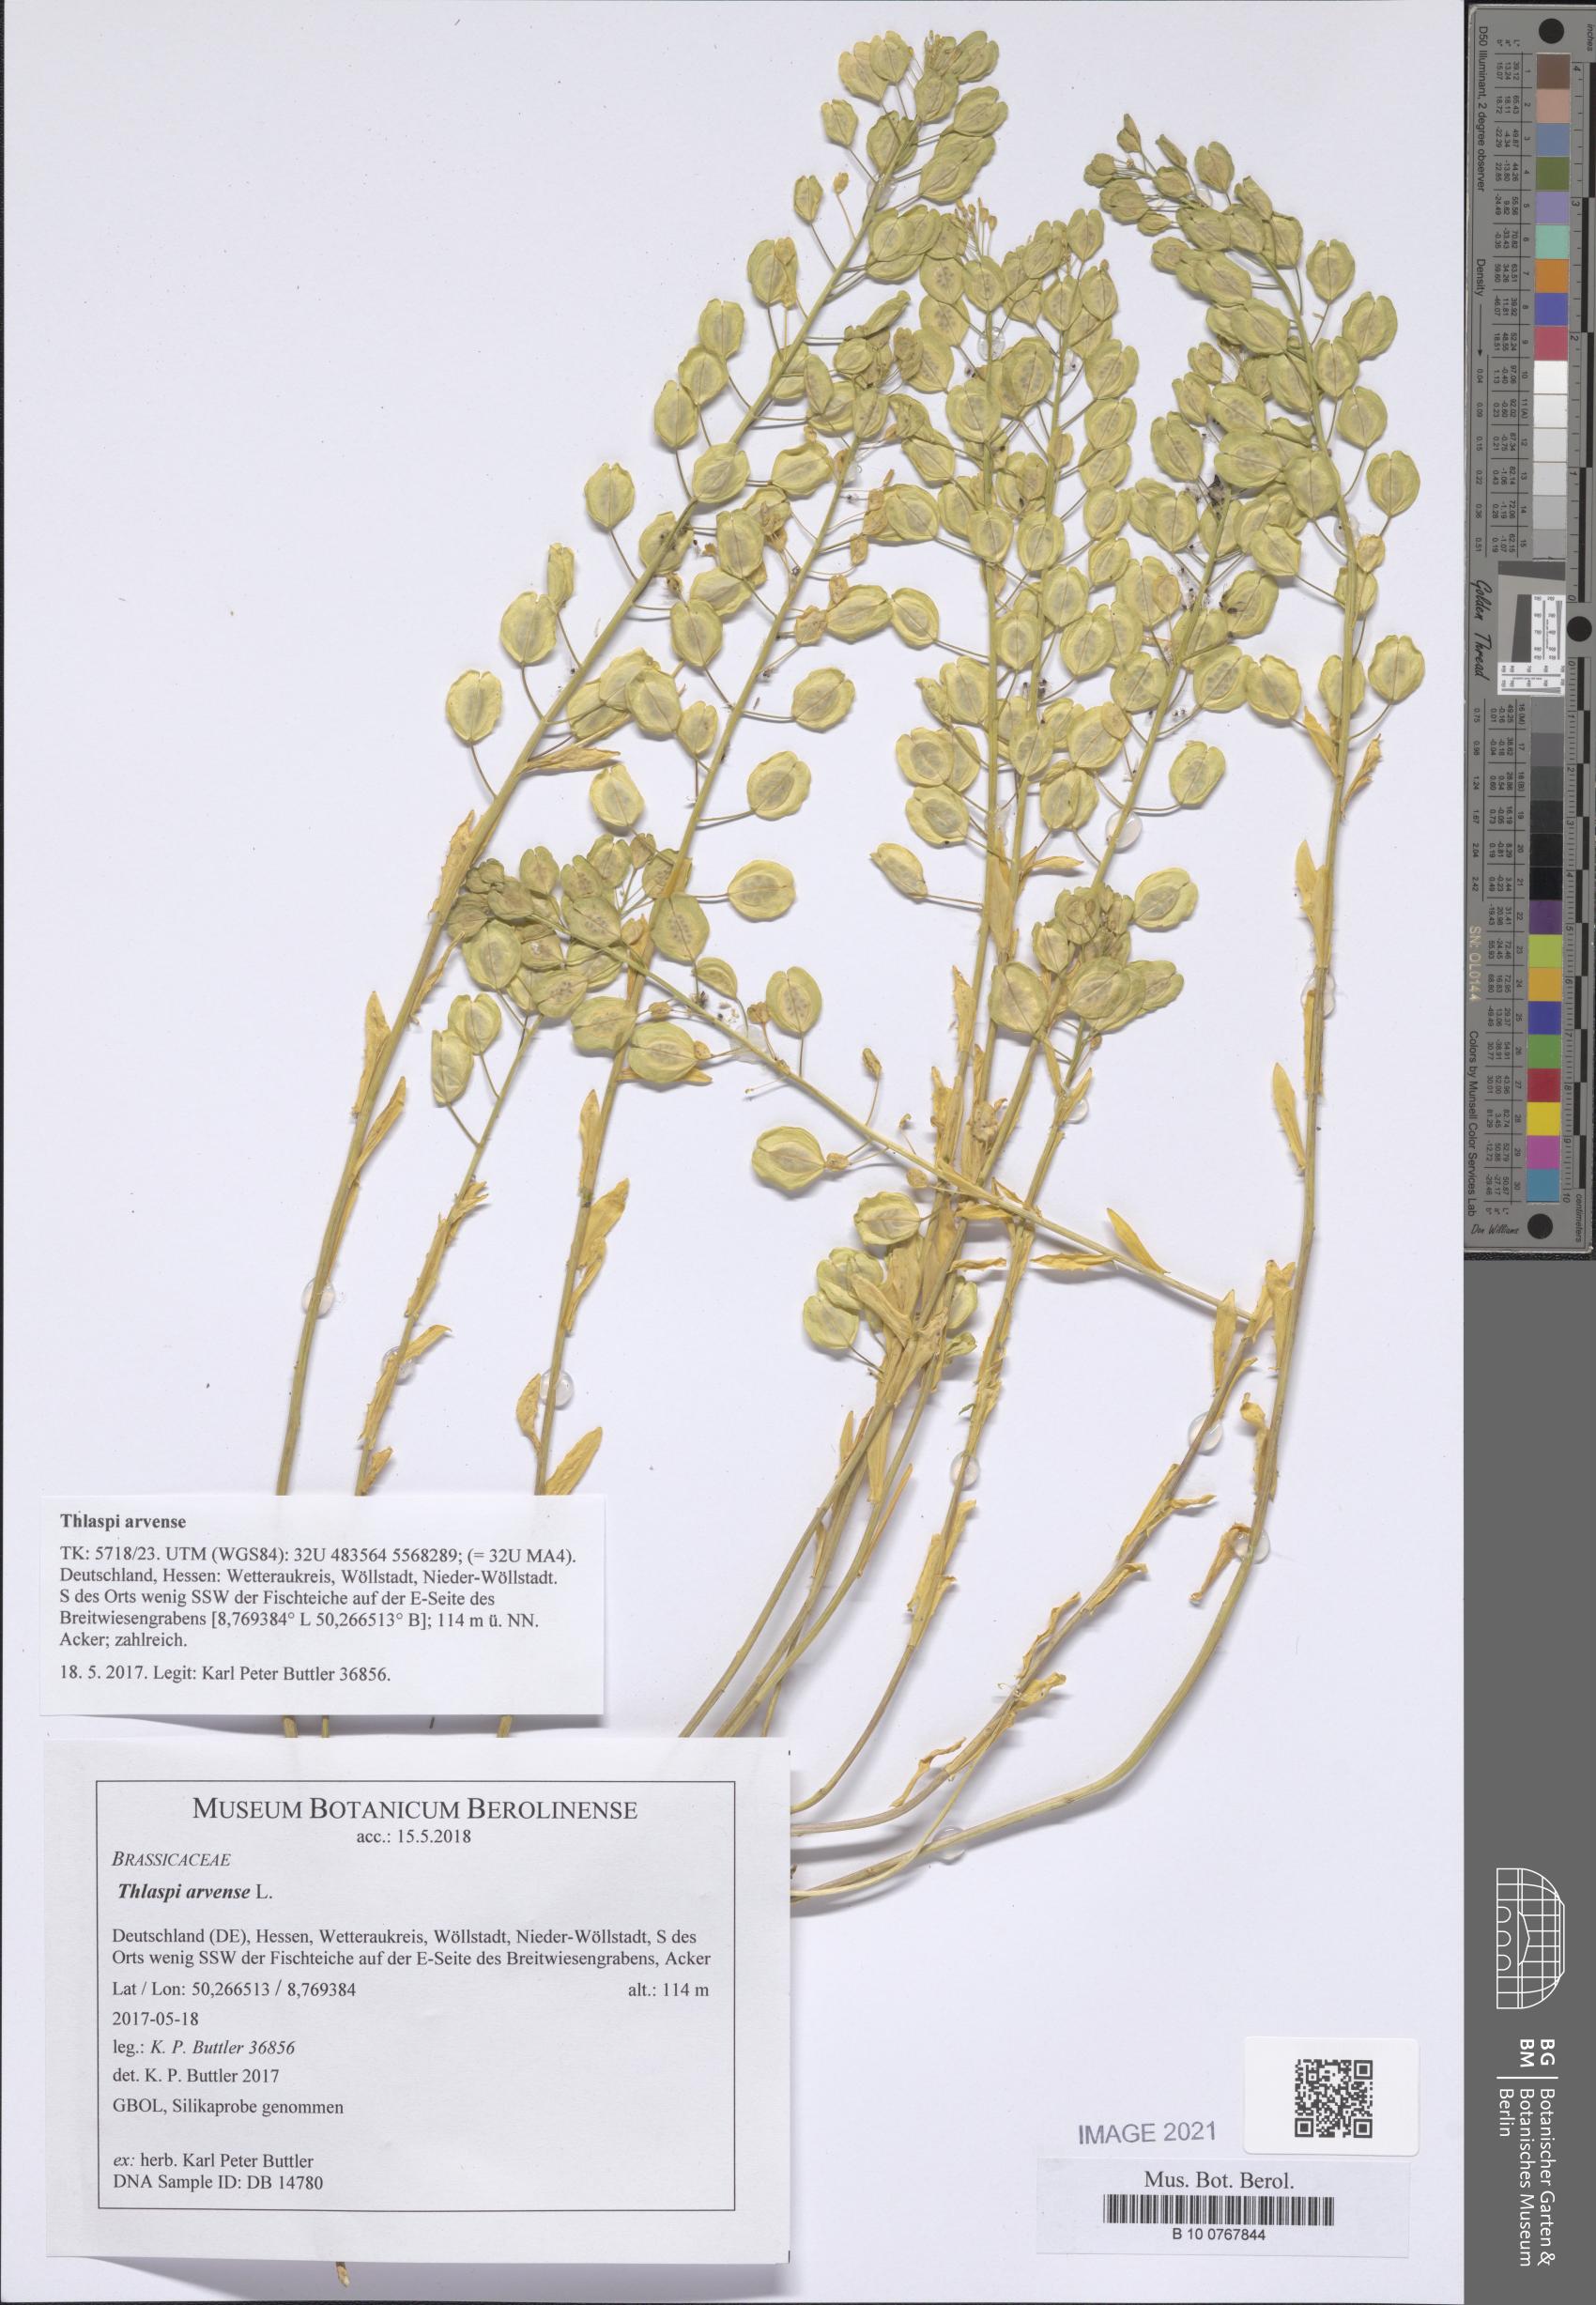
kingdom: Plantae
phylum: Tracheophyta
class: Magnoliopsida
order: Brassicales
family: Brassicaceae
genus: Thlaspi
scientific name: Thlaspi arvense
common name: Field pennycress
